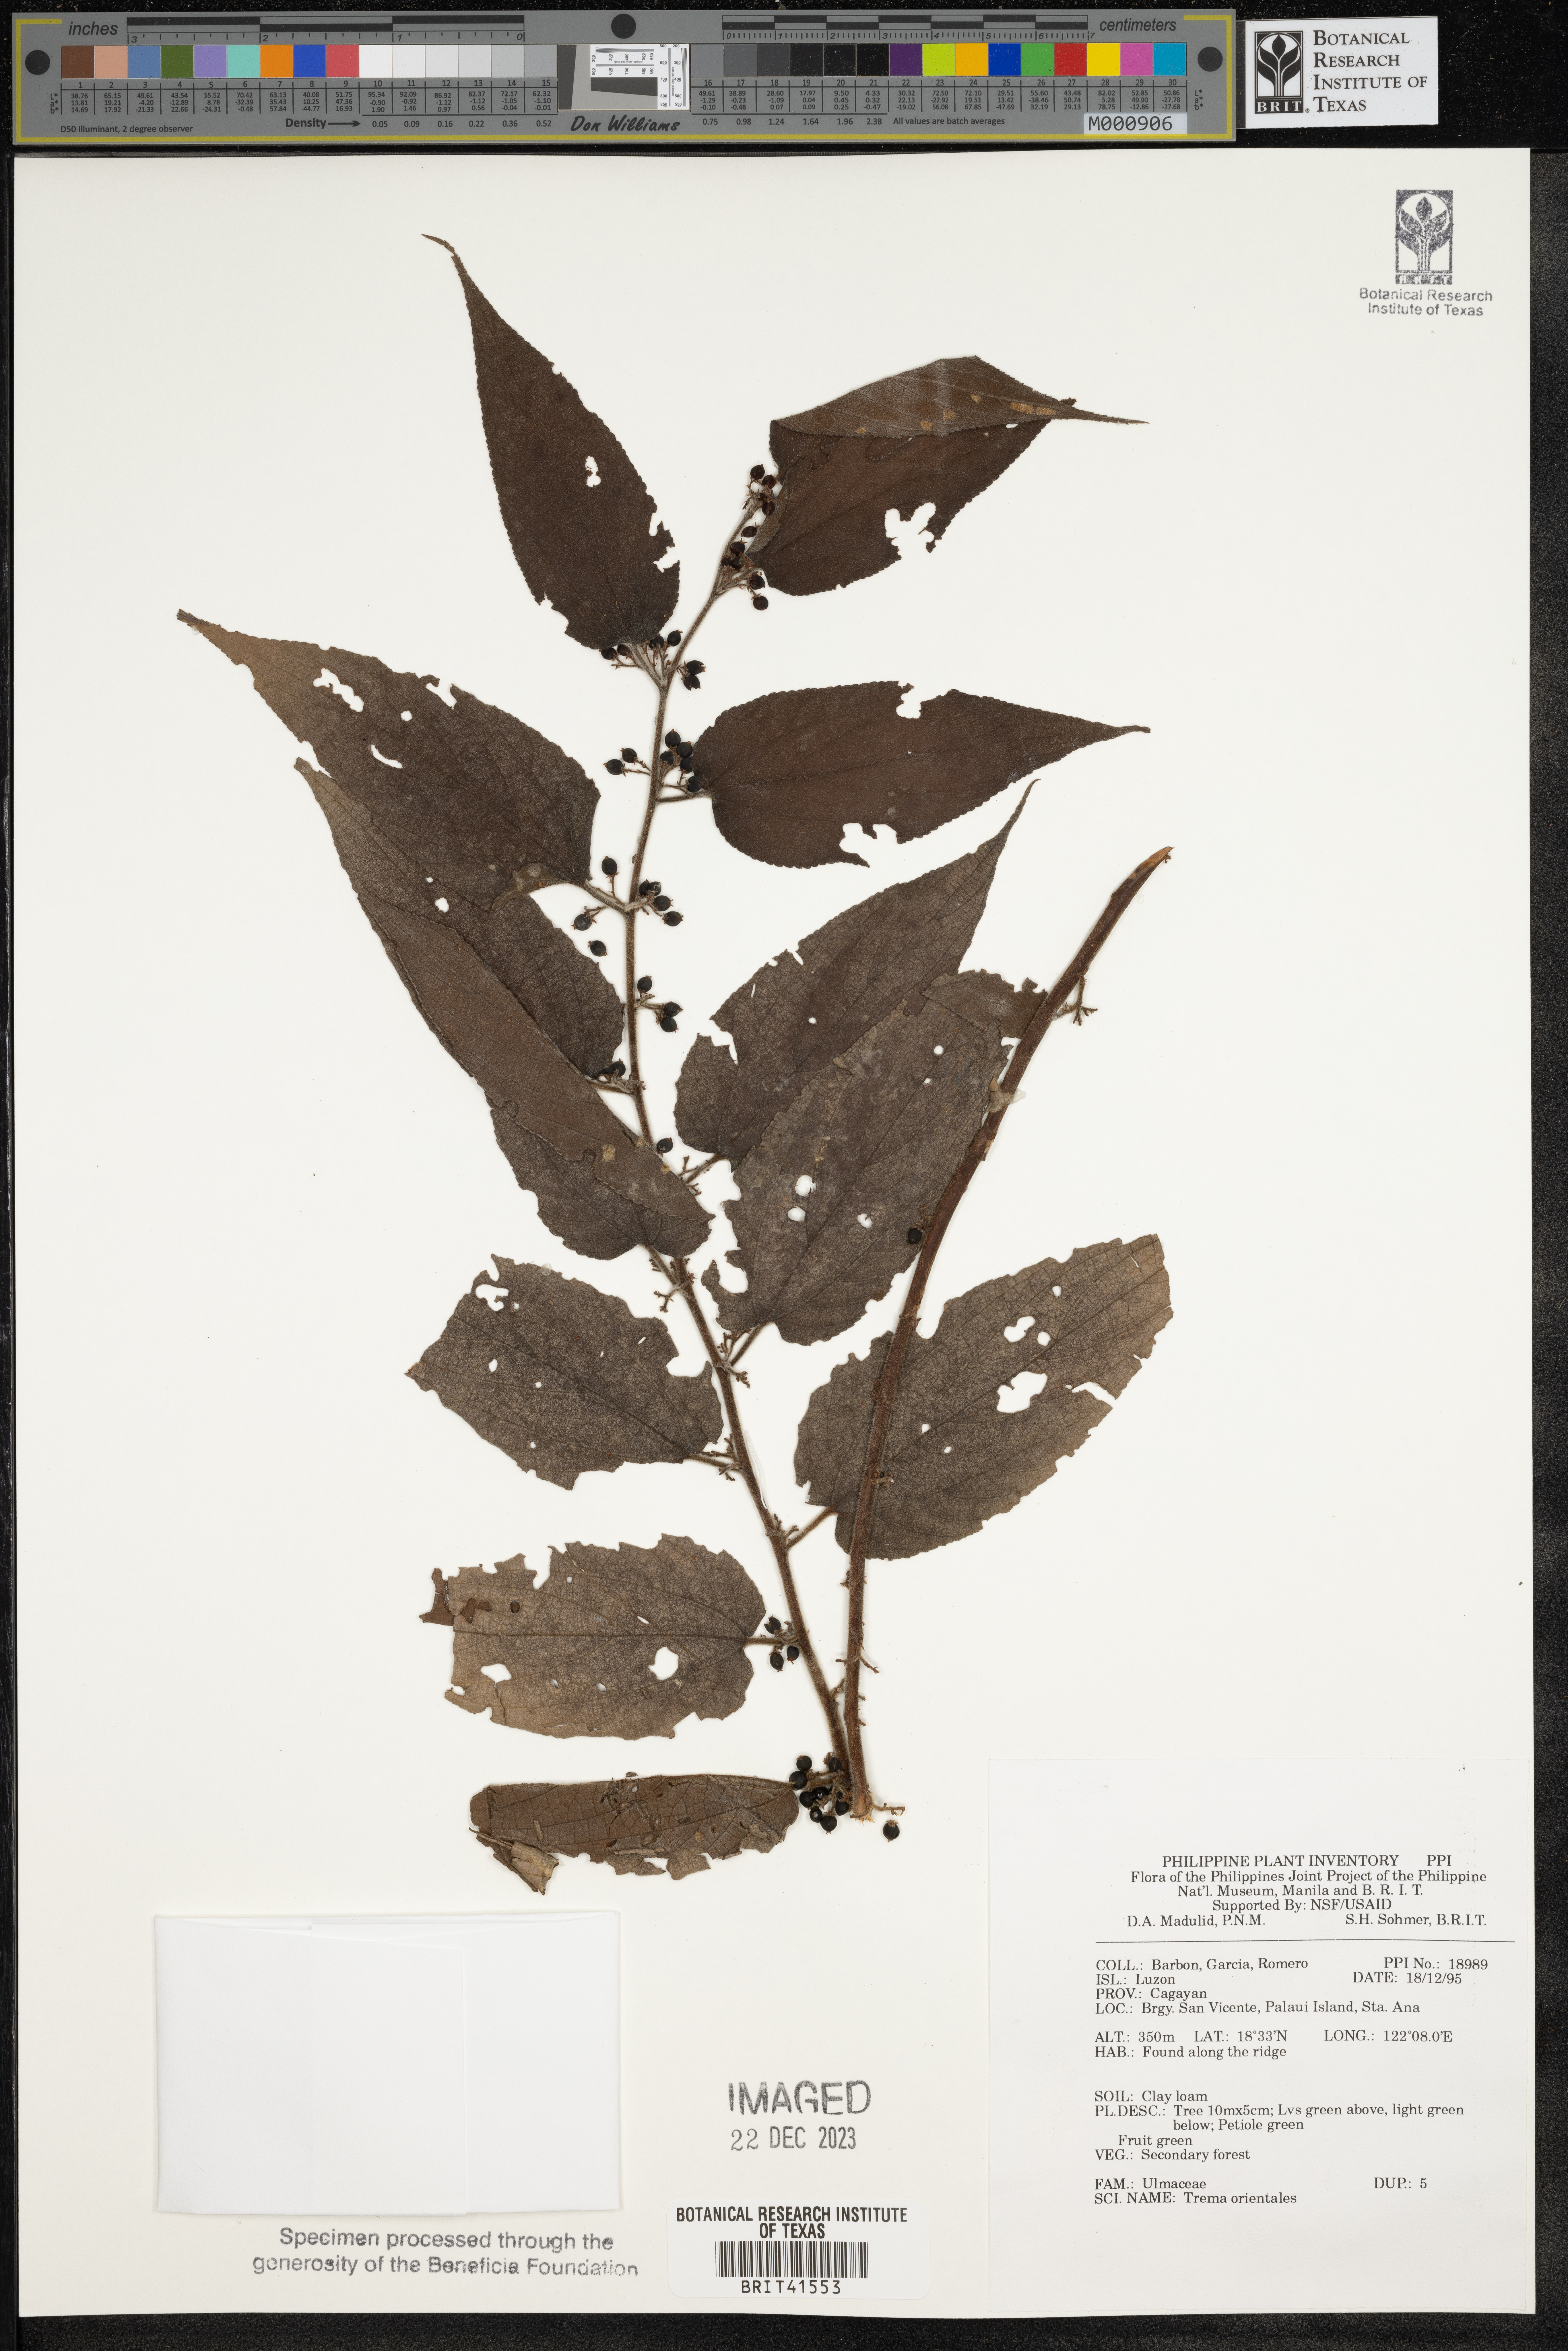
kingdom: Plantae
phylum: Tracheophyta
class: Magnoliopsida
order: Rosales
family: Cannabaceae
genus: Trema
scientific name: Trema orientale
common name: Indian charcoal tree
